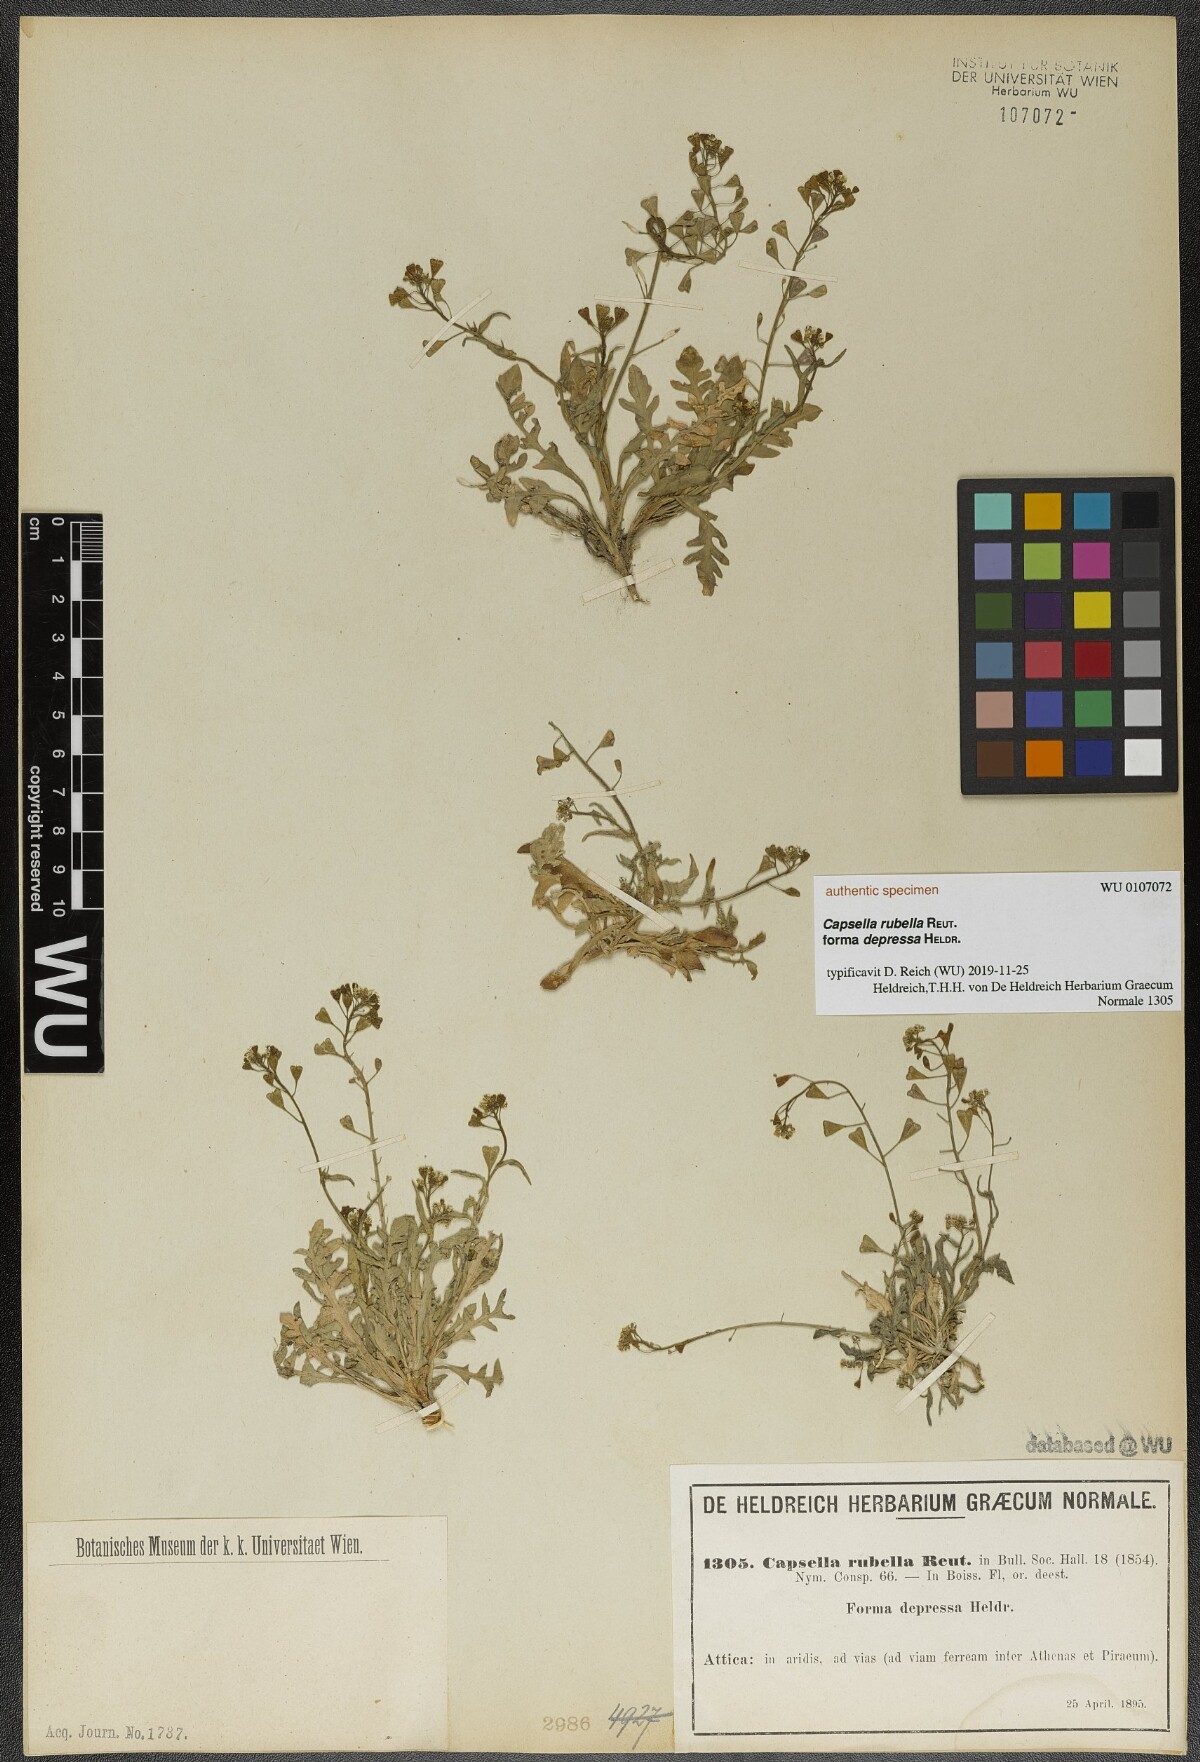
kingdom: Plantae
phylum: Tracheophyta
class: Magnoliopsida
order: Brassicales
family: Brassicaceae
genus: Capsella
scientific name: Capsella rubella
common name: Pink shepherd's-purse
